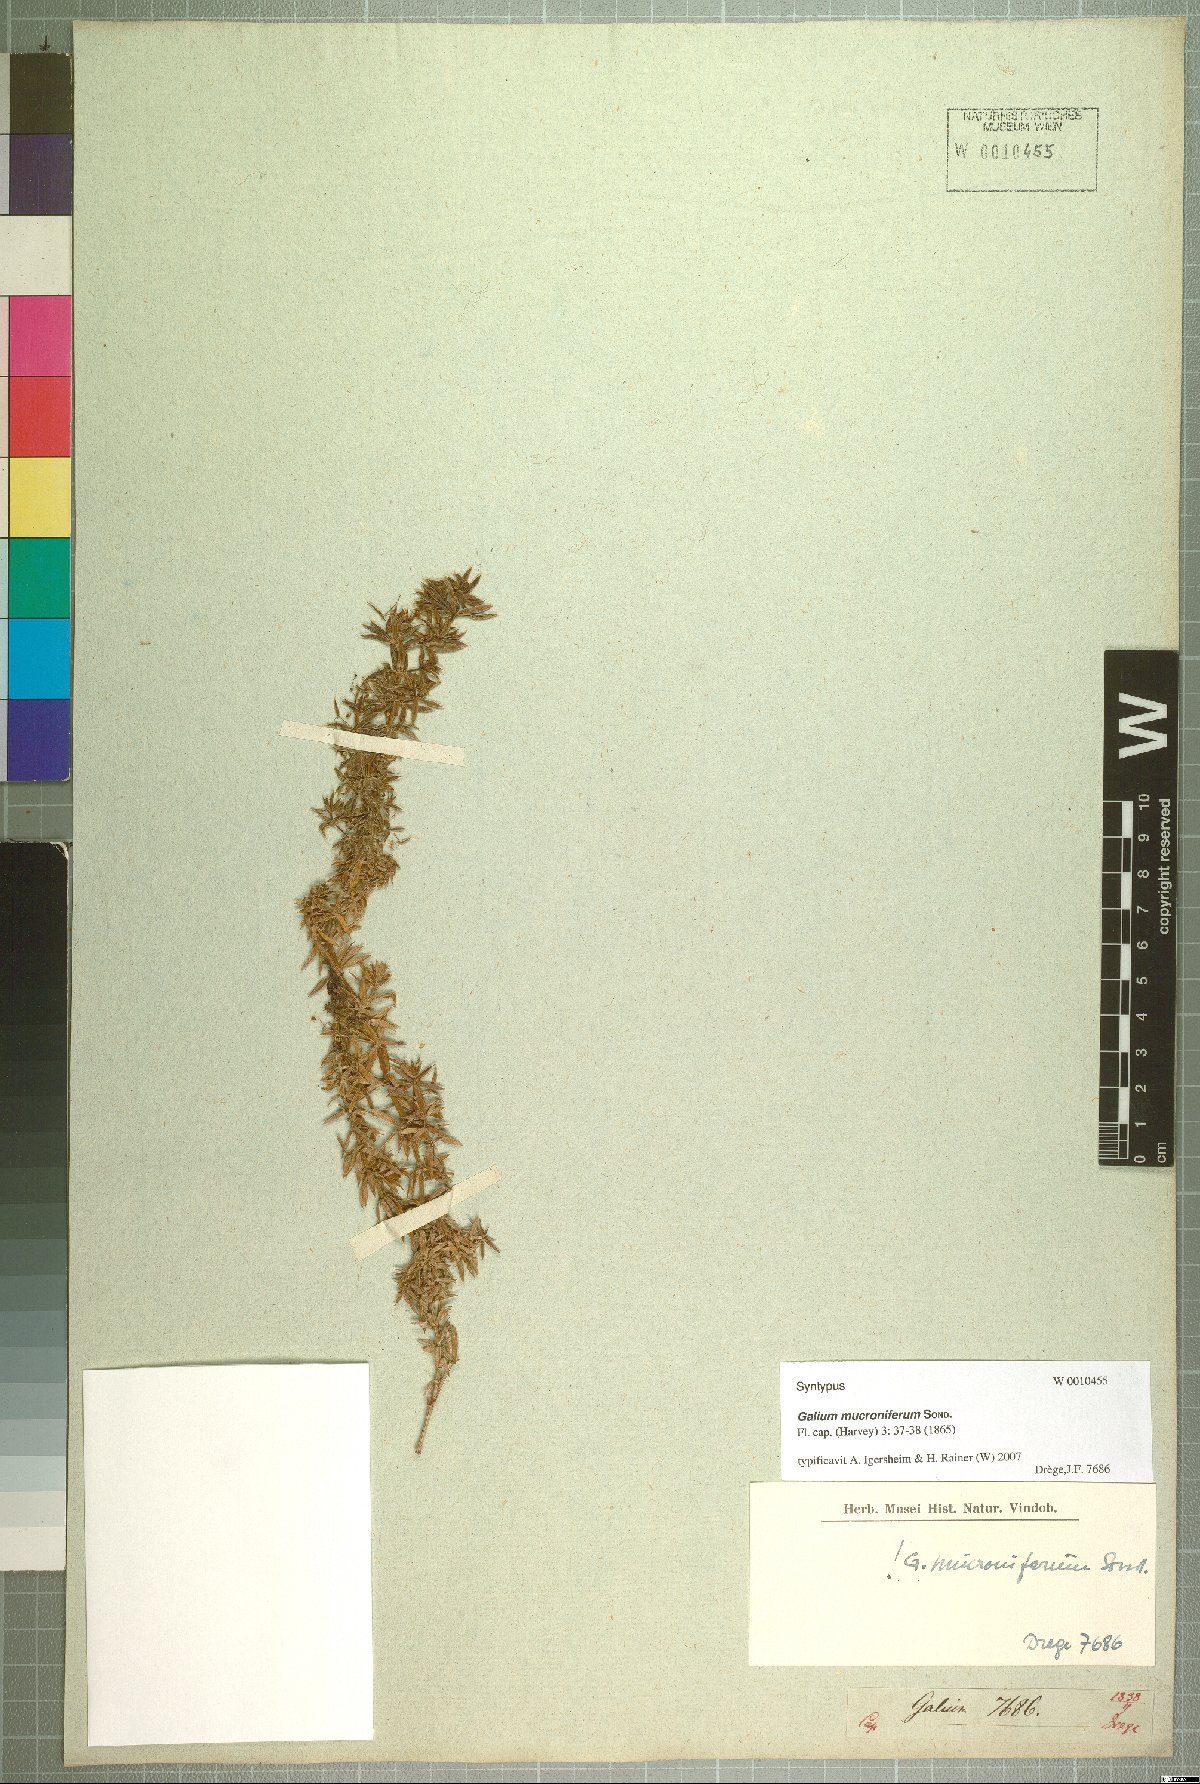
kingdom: Plantae
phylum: Tracheophyta
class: Magnoliopsida
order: Gentianales
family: Rubiaceae
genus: Galium
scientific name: Galium mucroniferum
